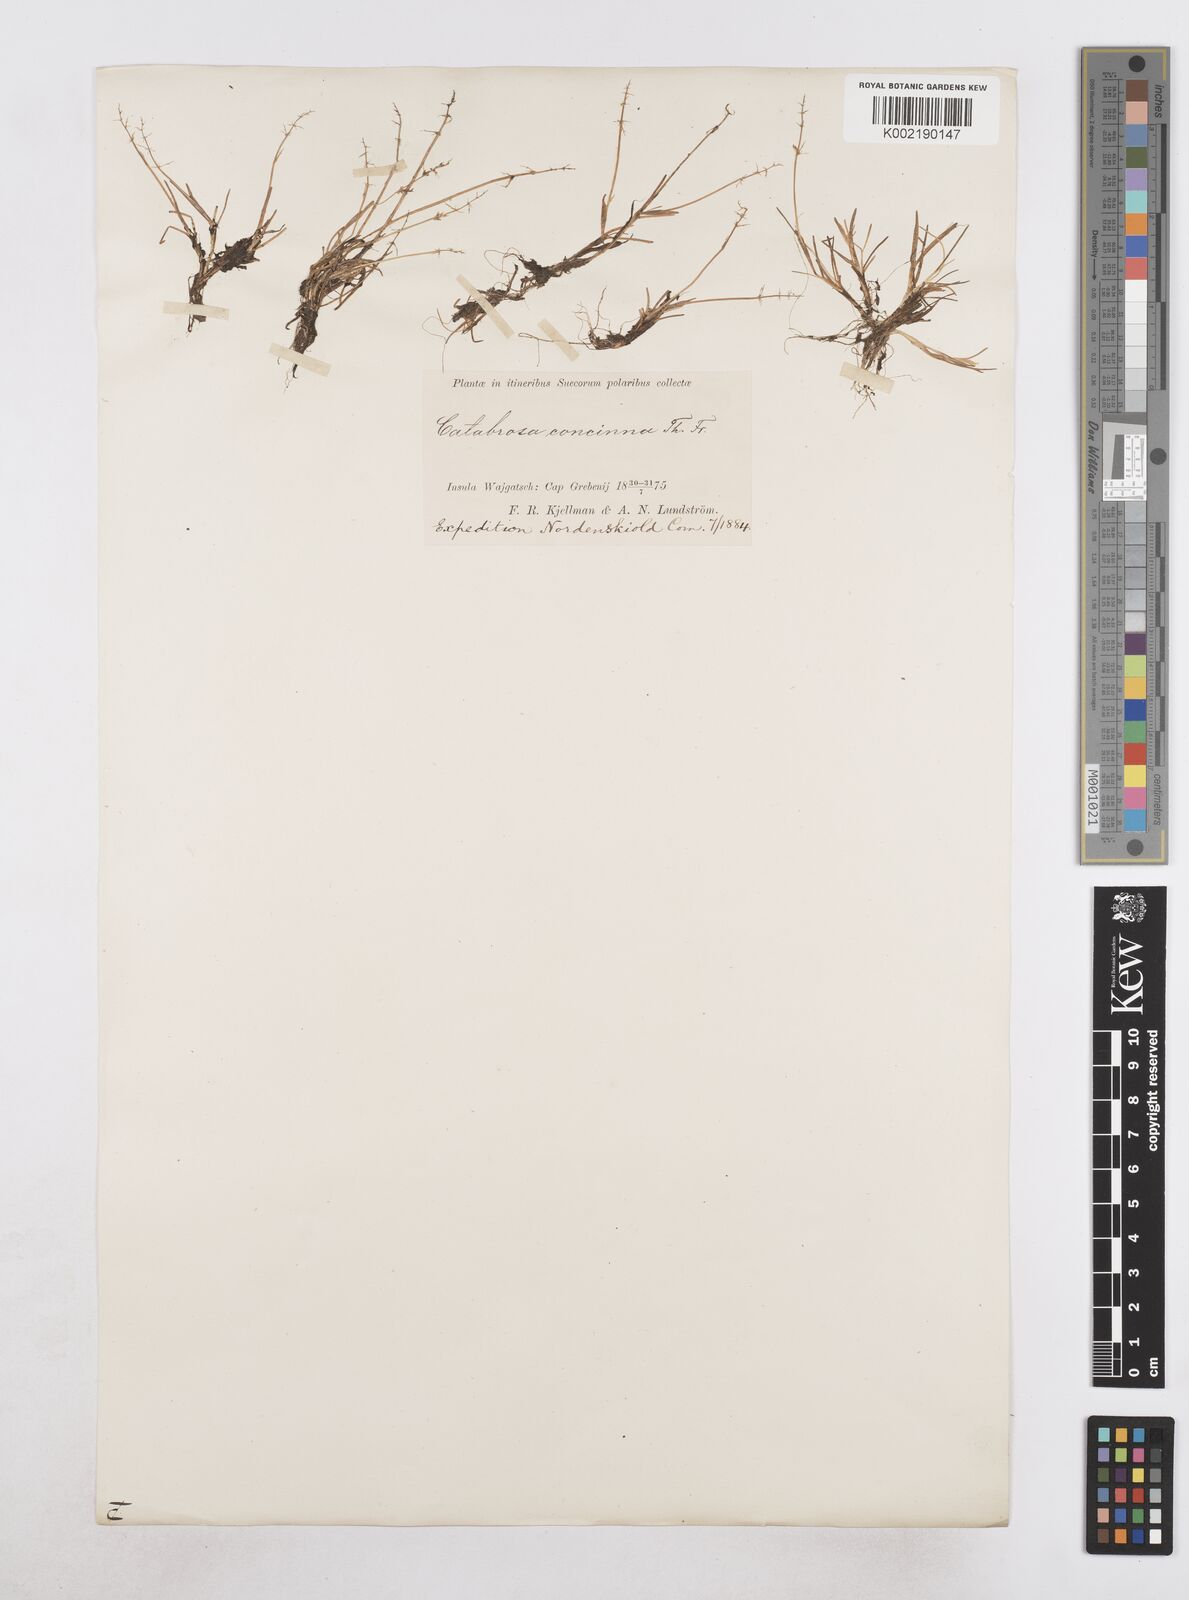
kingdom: Plantae
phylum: Tracheophyta
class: Liliopsida
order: Poales
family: Poaceae
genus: Phippsia
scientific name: Phippsia concinna
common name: Snowgrass
